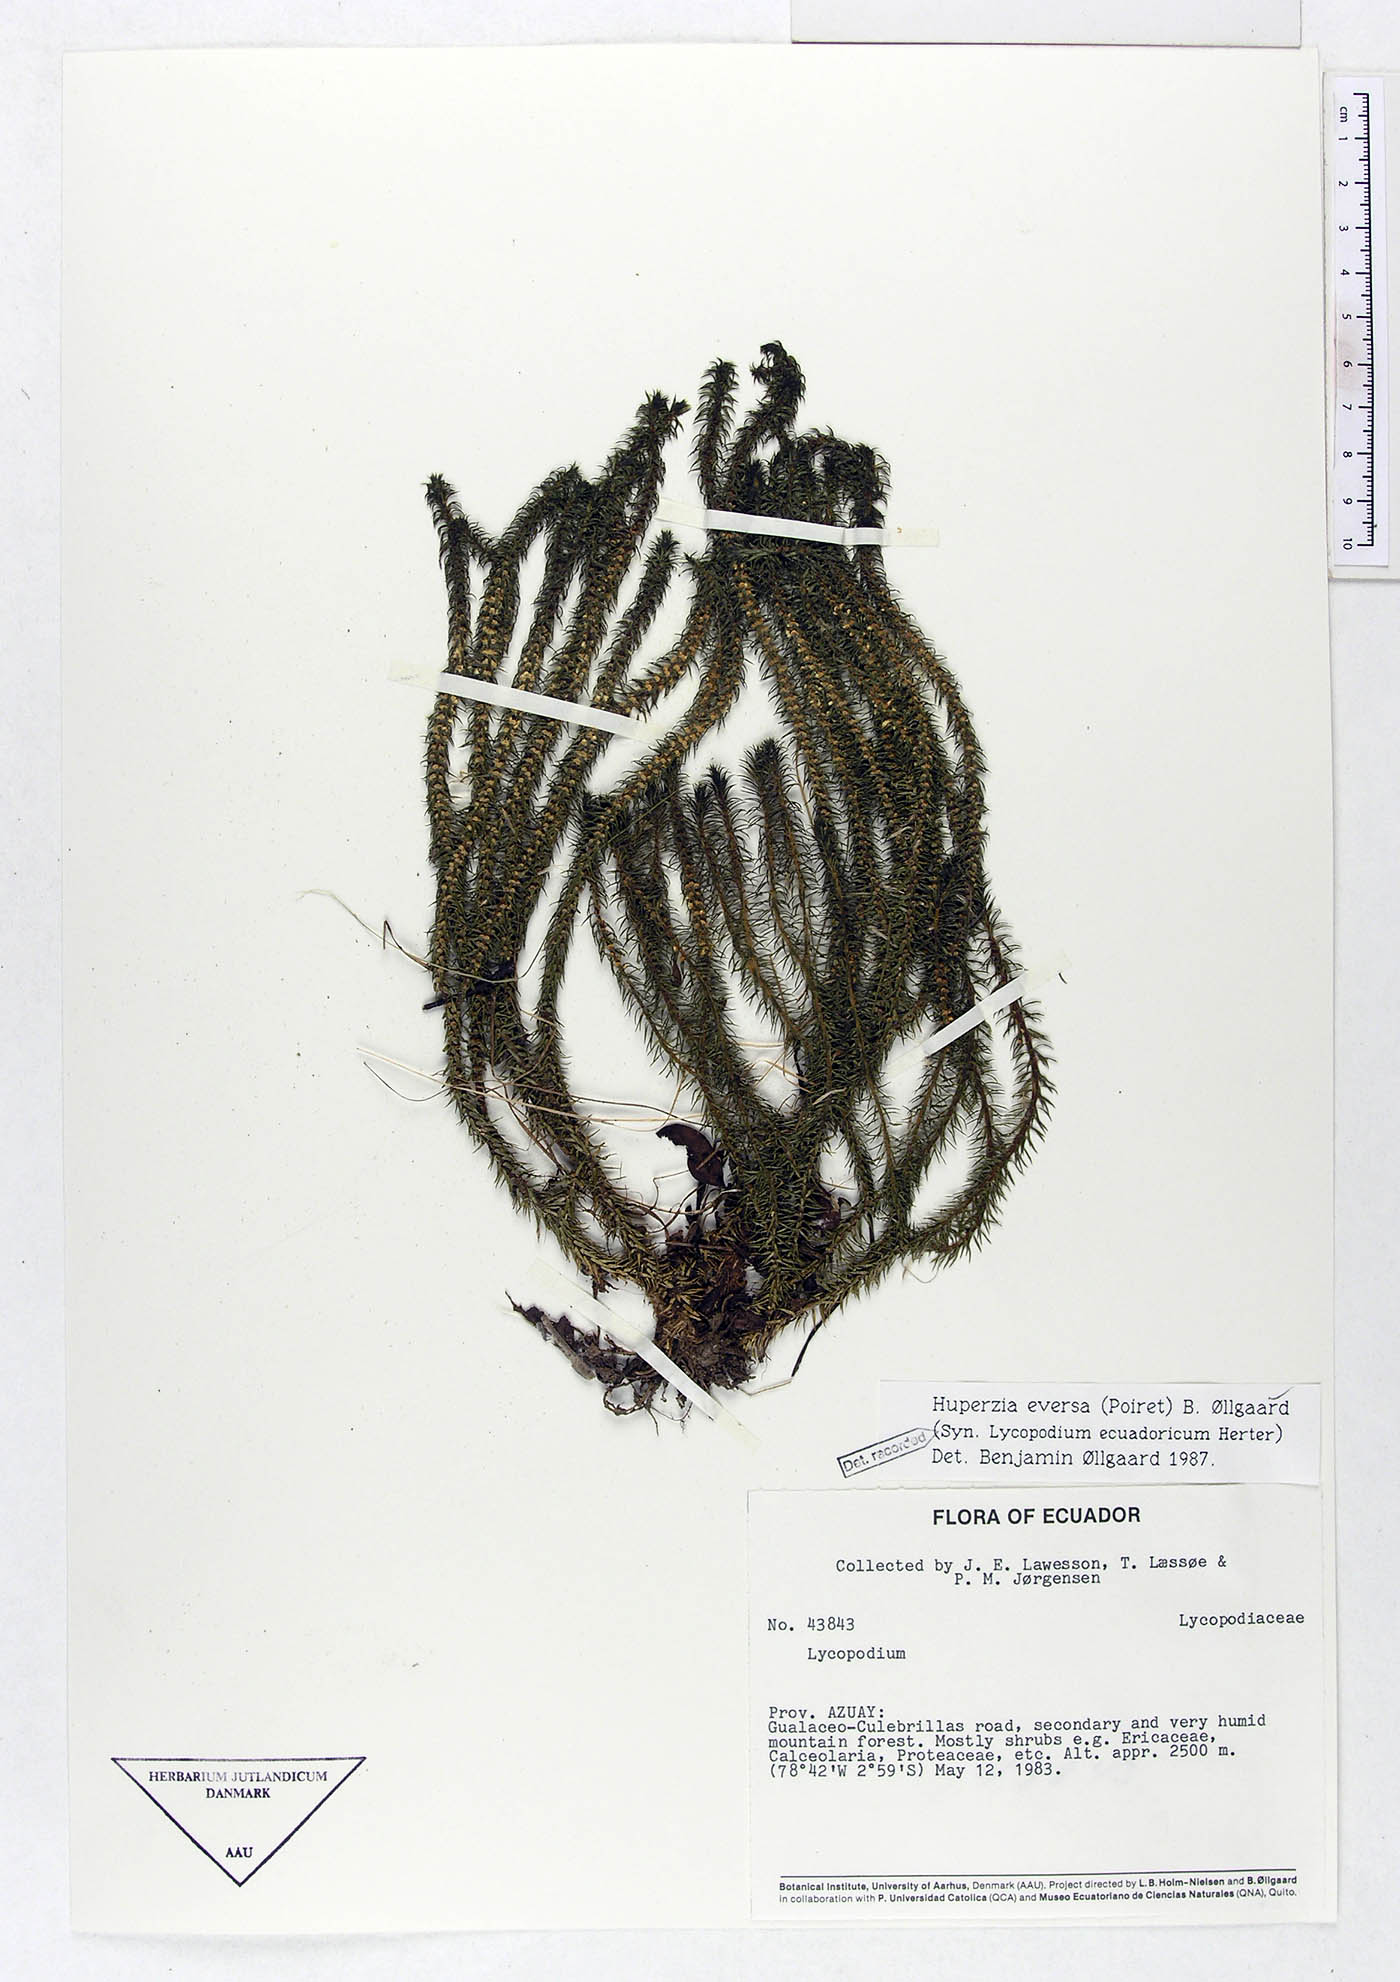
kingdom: Plantae
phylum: Tracheophyta
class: Lycopodiopsida
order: Lycopodiales
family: Lycopodiaceae
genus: Phlegmariurus
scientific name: Phlegmariurus eversus
